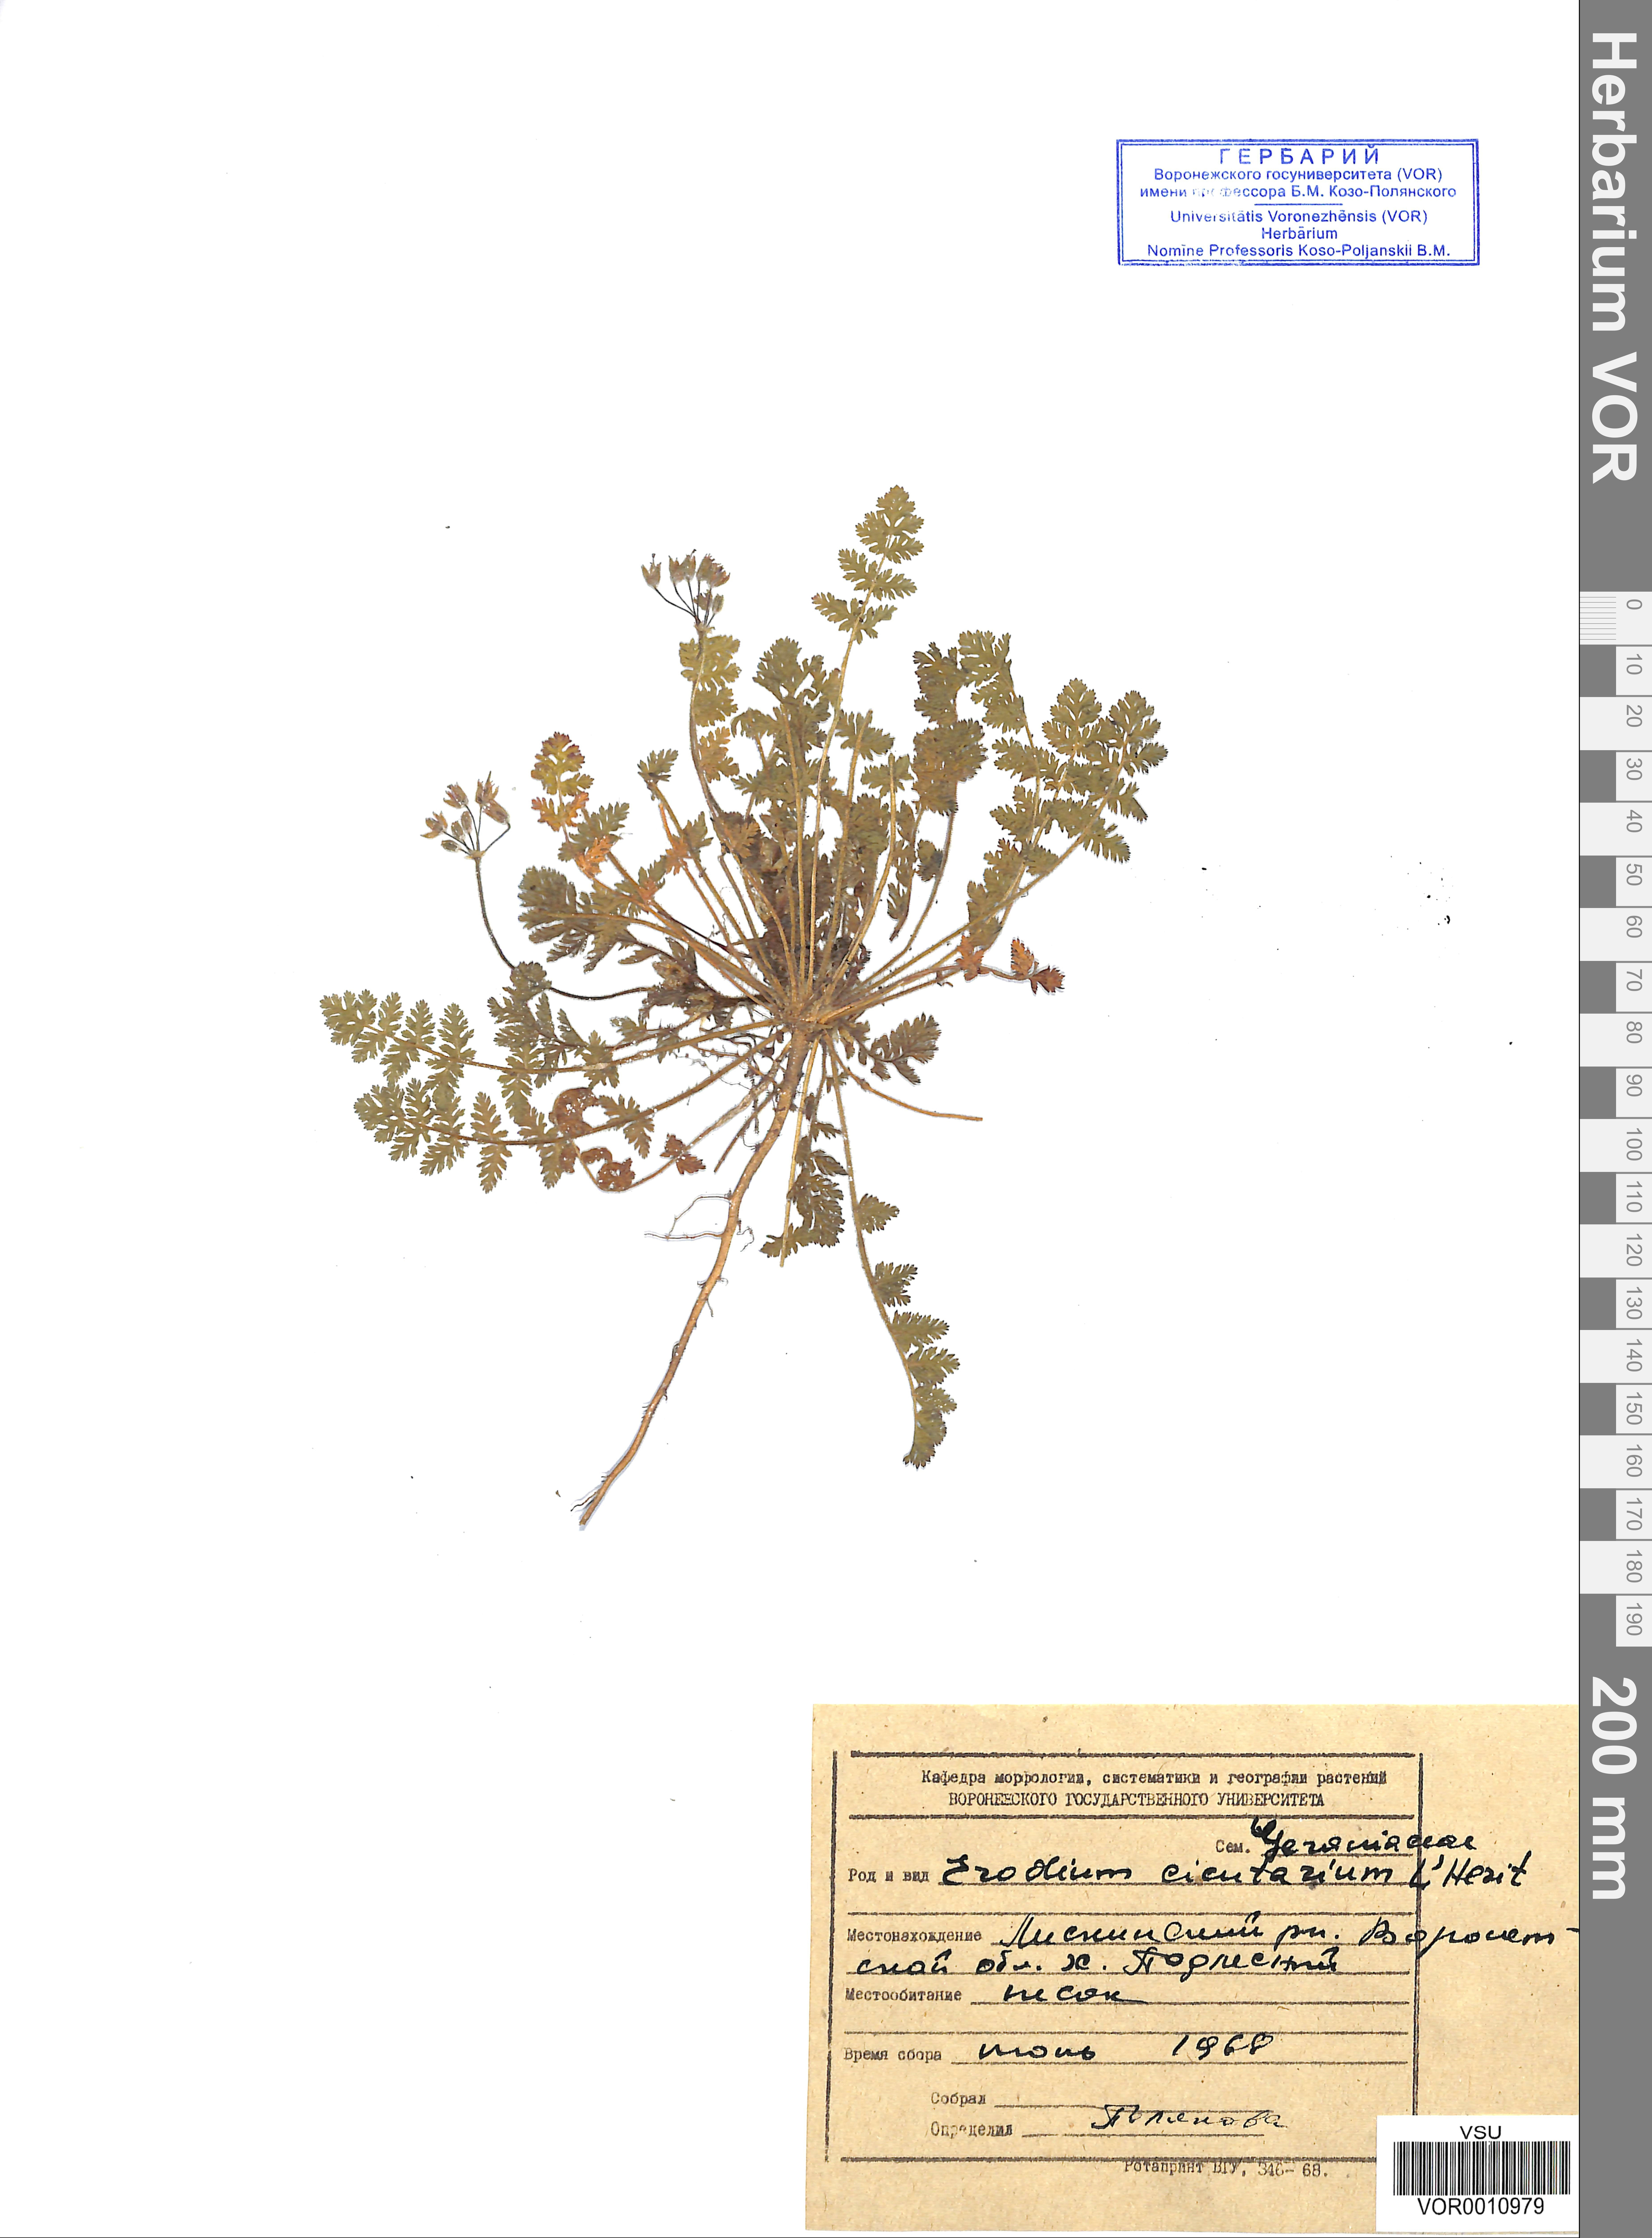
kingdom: Plantae
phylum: Tracheophyta
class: Magnoliopsida
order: Geraniales
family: Geraniaceae
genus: Erodium
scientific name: Erodium cicutarium
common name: Common stork's-bill
